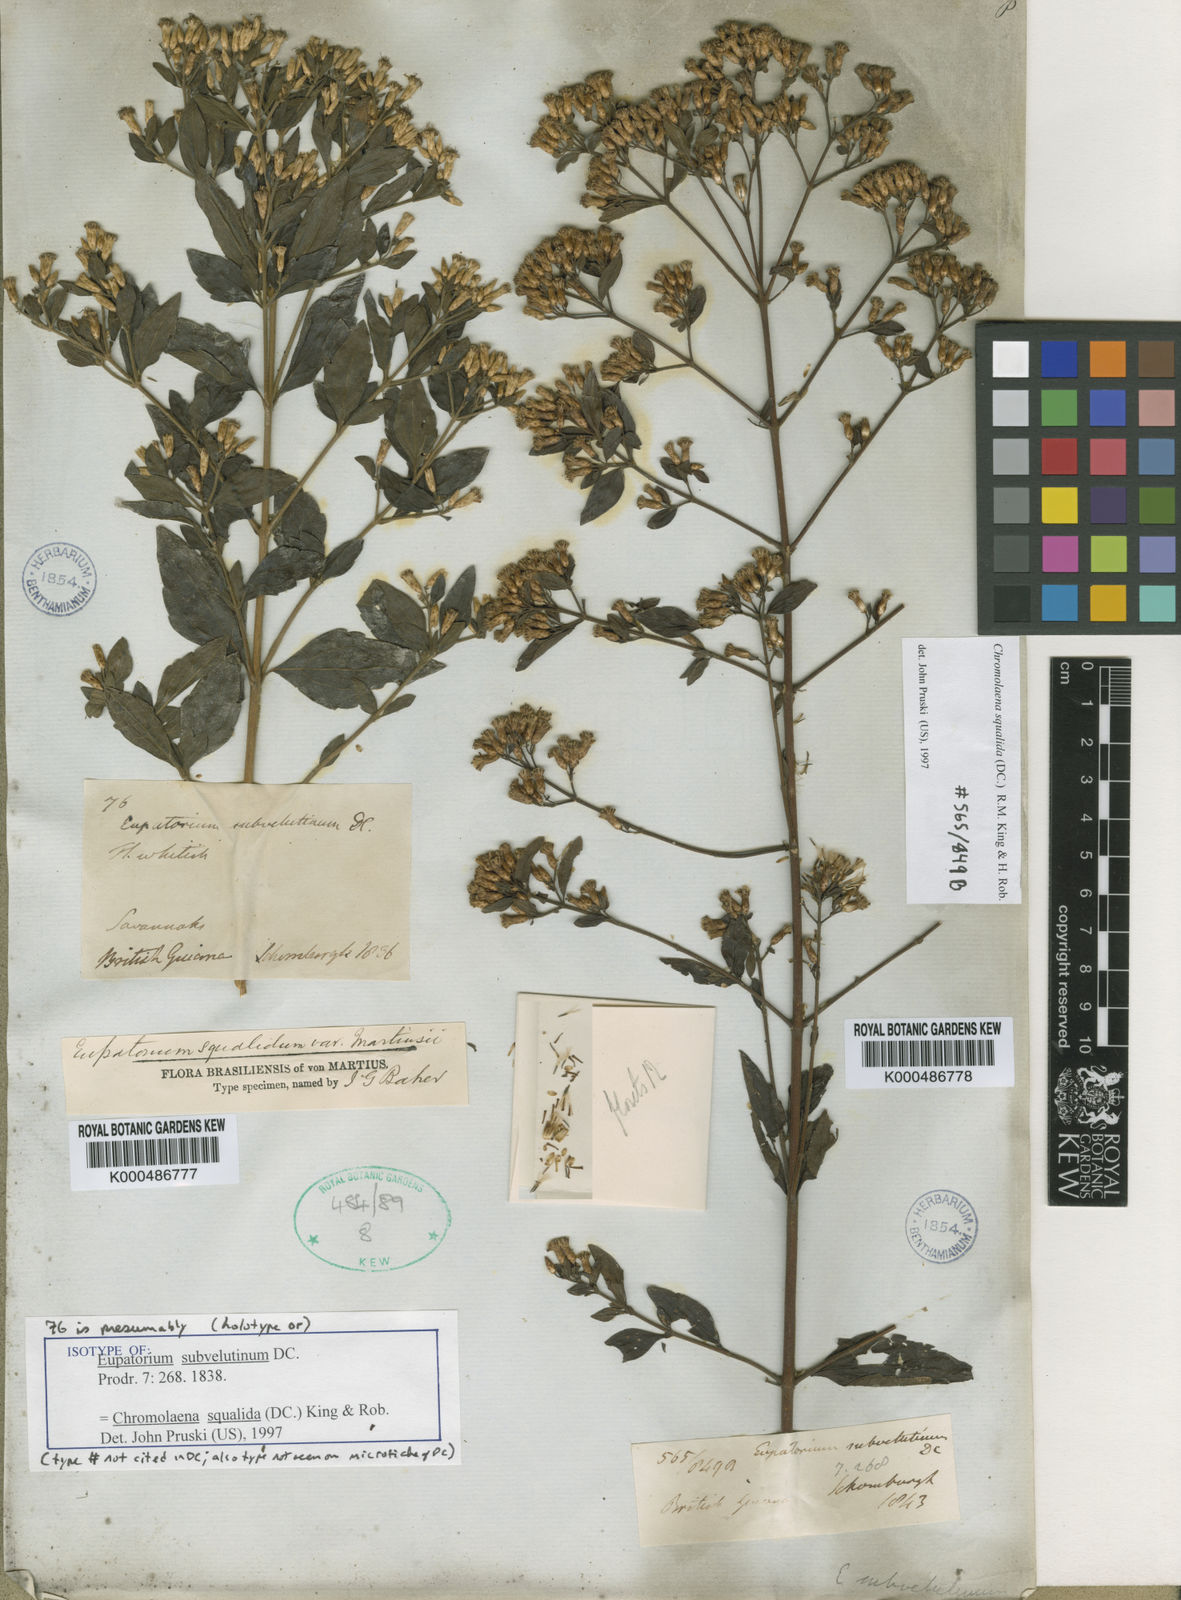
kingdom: Plantae
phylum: Tracheophyta
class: Magnoliopsida
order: Asterales
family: Asteraceae
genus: Chromolaena
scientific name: Chromolaena squalida
